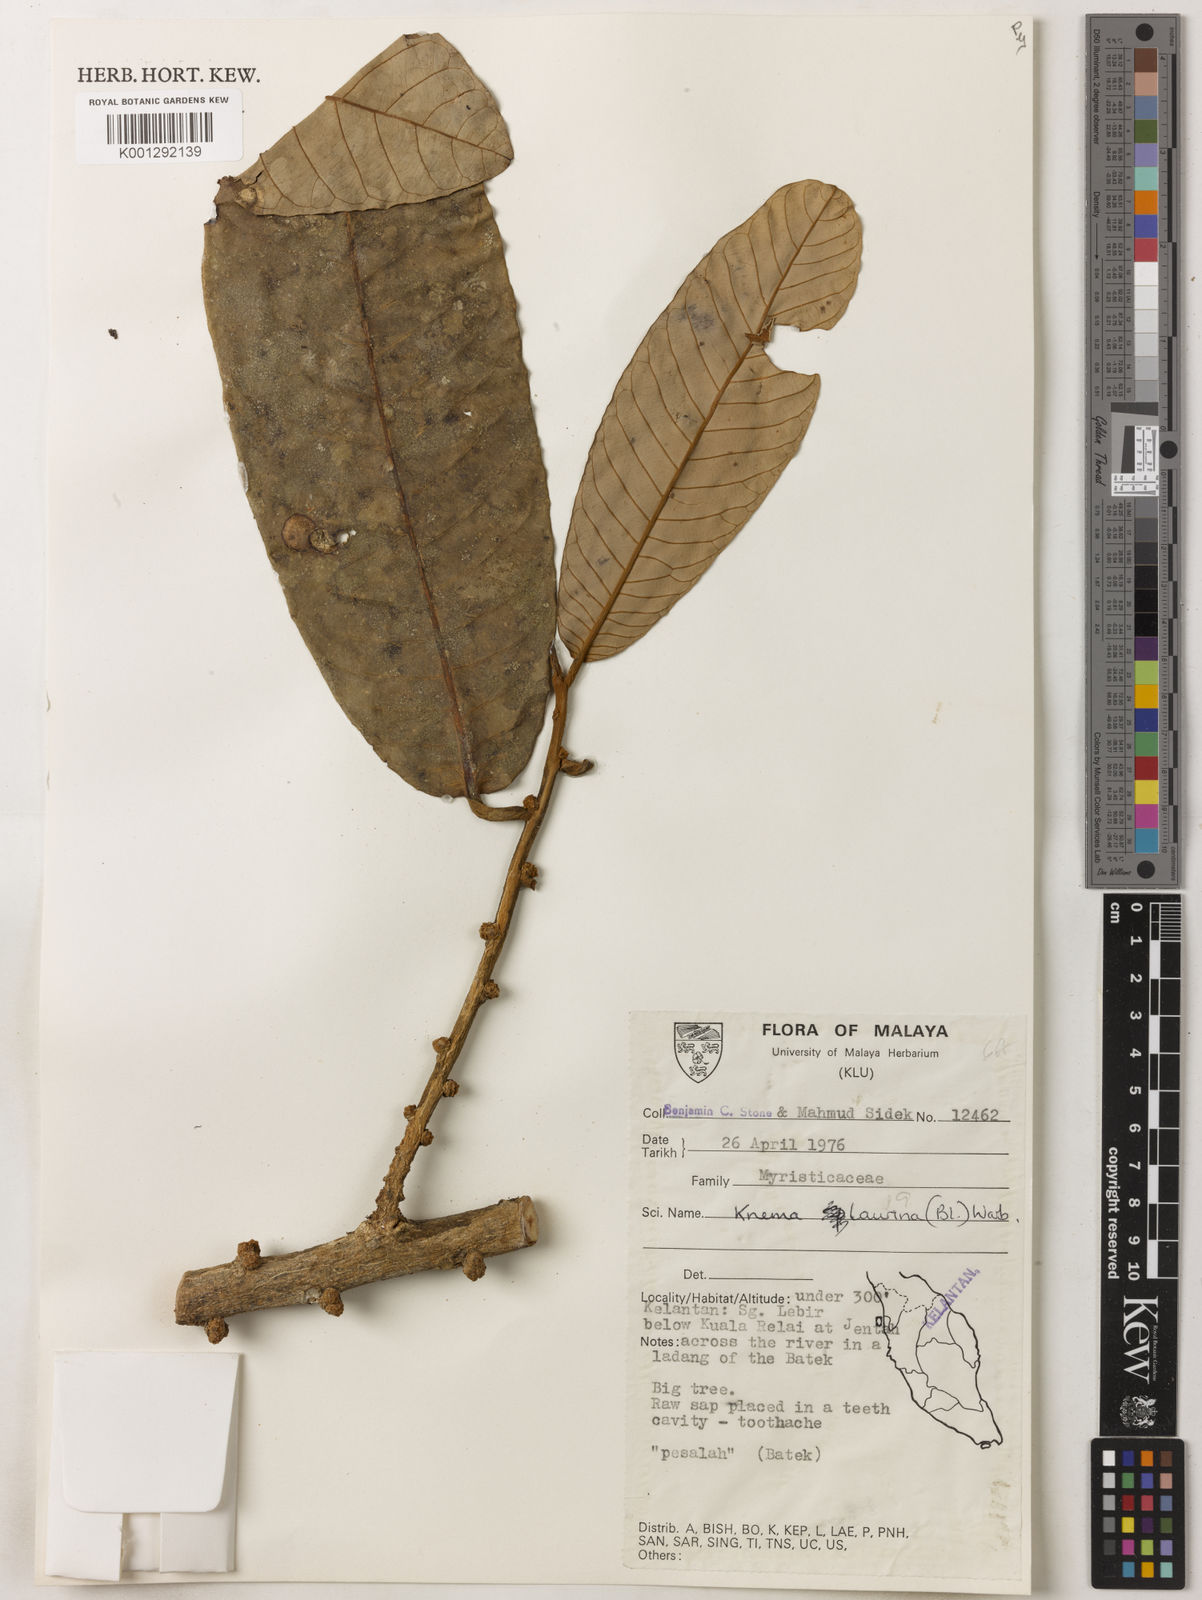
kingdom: Plantae
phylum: Tracheophyta
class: Magnoliopsida
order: Magnoliales
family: Myristicaceae
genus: Knema
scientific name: Knema laurina
